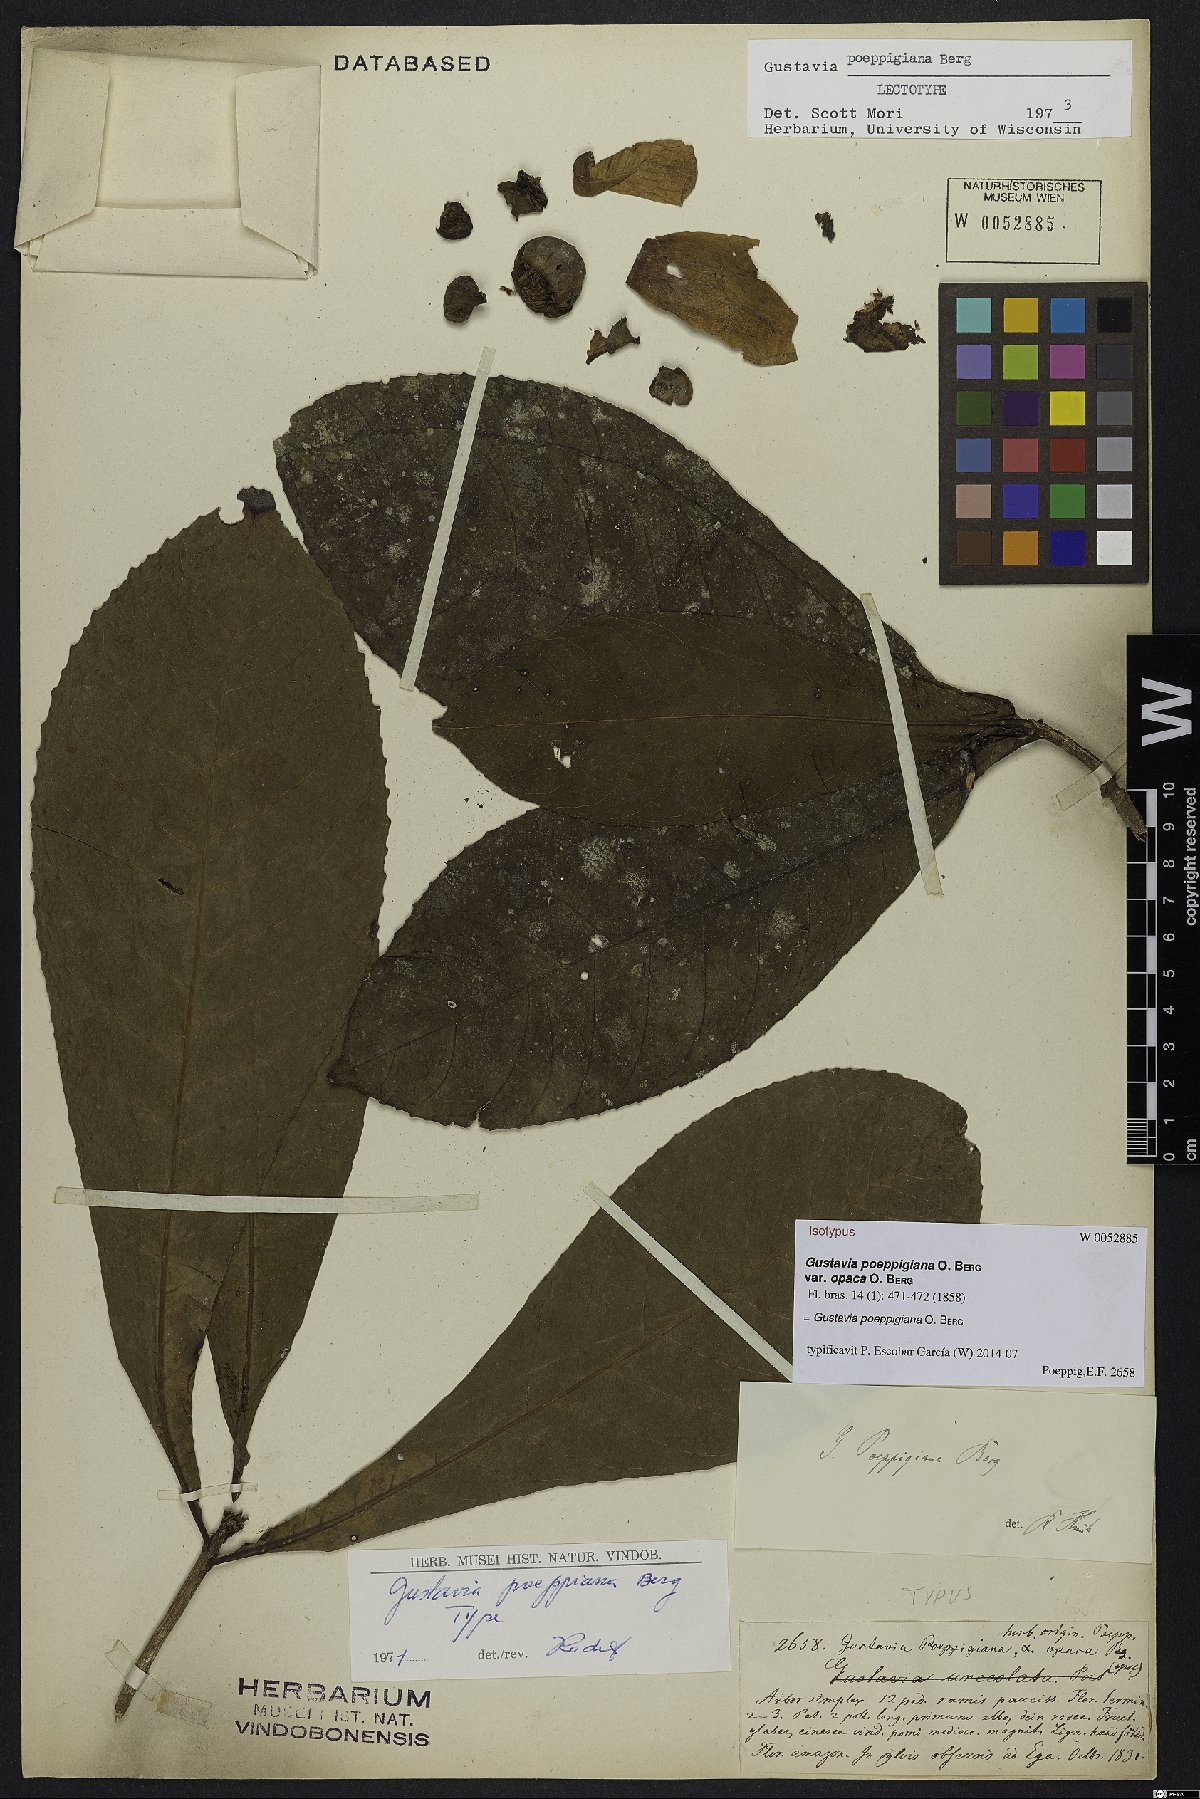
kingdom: Plantae
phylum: Tracheophyta
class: Magnoliopsida
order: Ericales
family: Lecythidaceae
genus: Gustavia
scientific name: Gustavia poeppigiana
